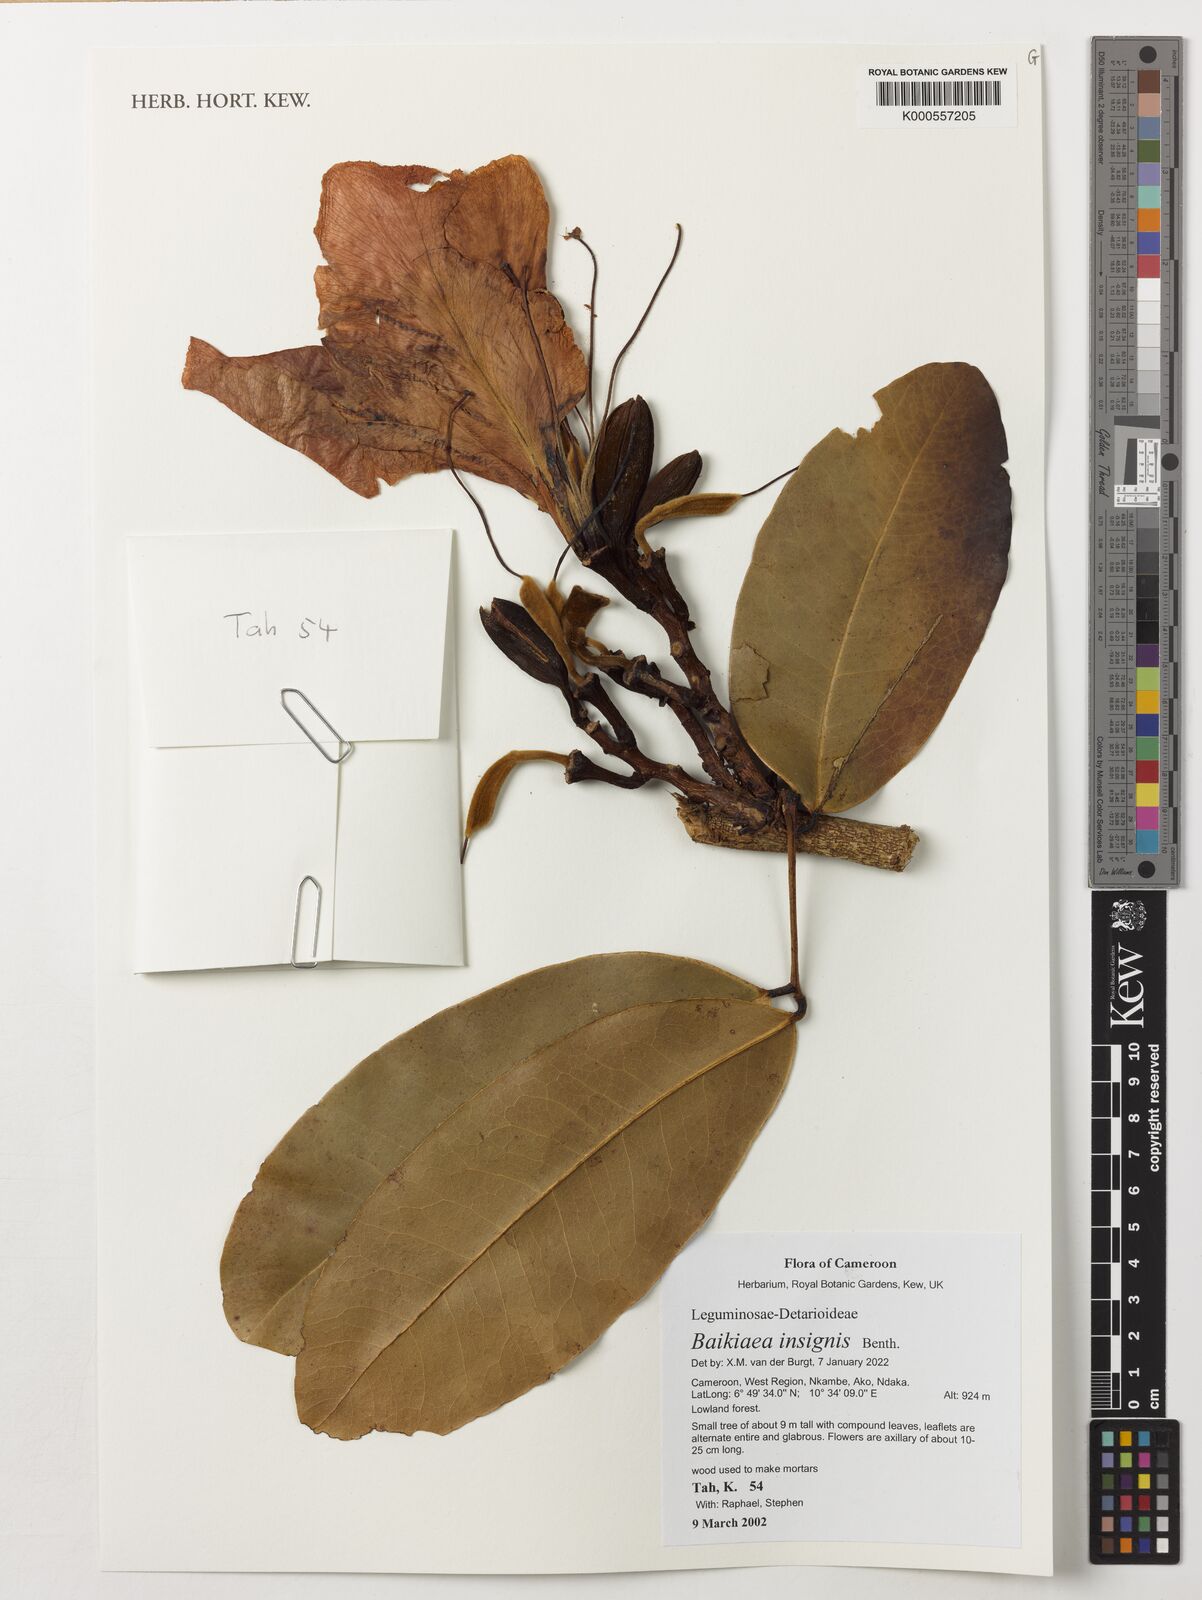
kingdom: Plantae
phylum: Tracheophyta
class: Magnoliopsida
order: Fabales
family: Fabaceae
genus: Baikiaea
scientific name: Baikiaea insignis
